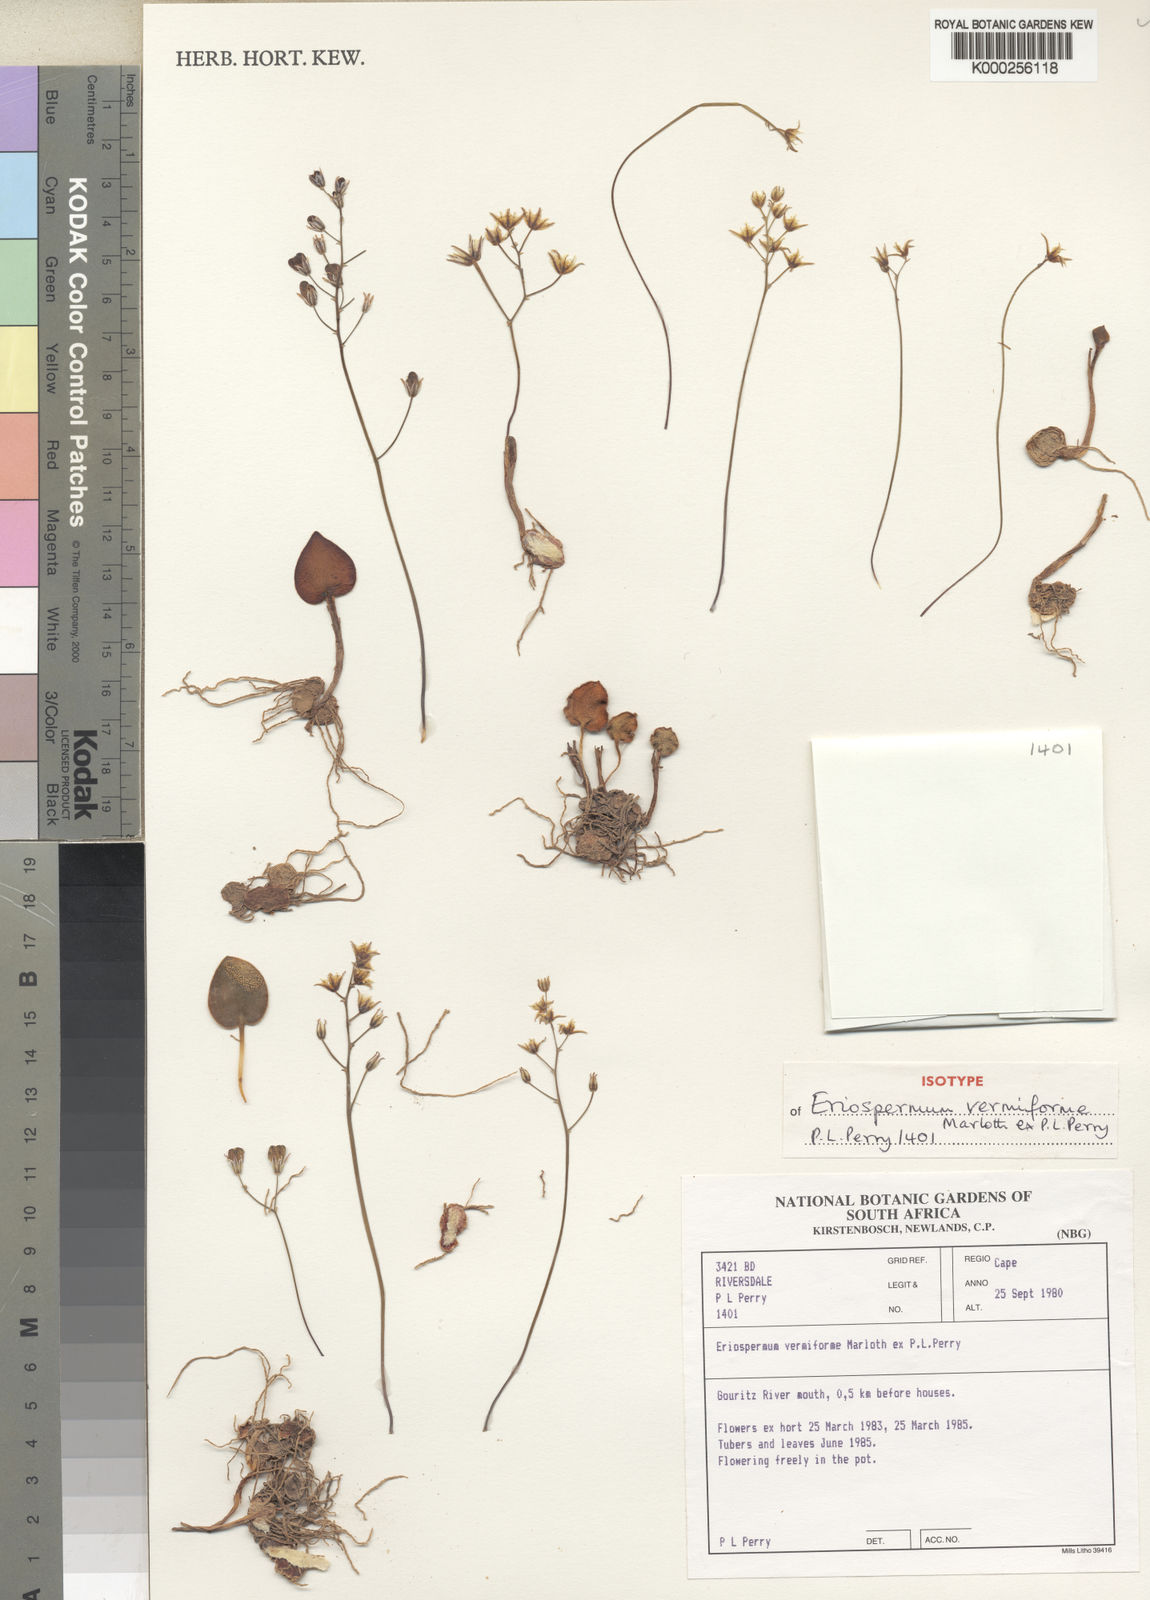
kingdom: Plantae
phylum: Tracheophyta
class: Liliopsida
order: Asparagales
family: Asparagaceae
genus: Eriospermum
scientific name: Eriospermum vermiforme
